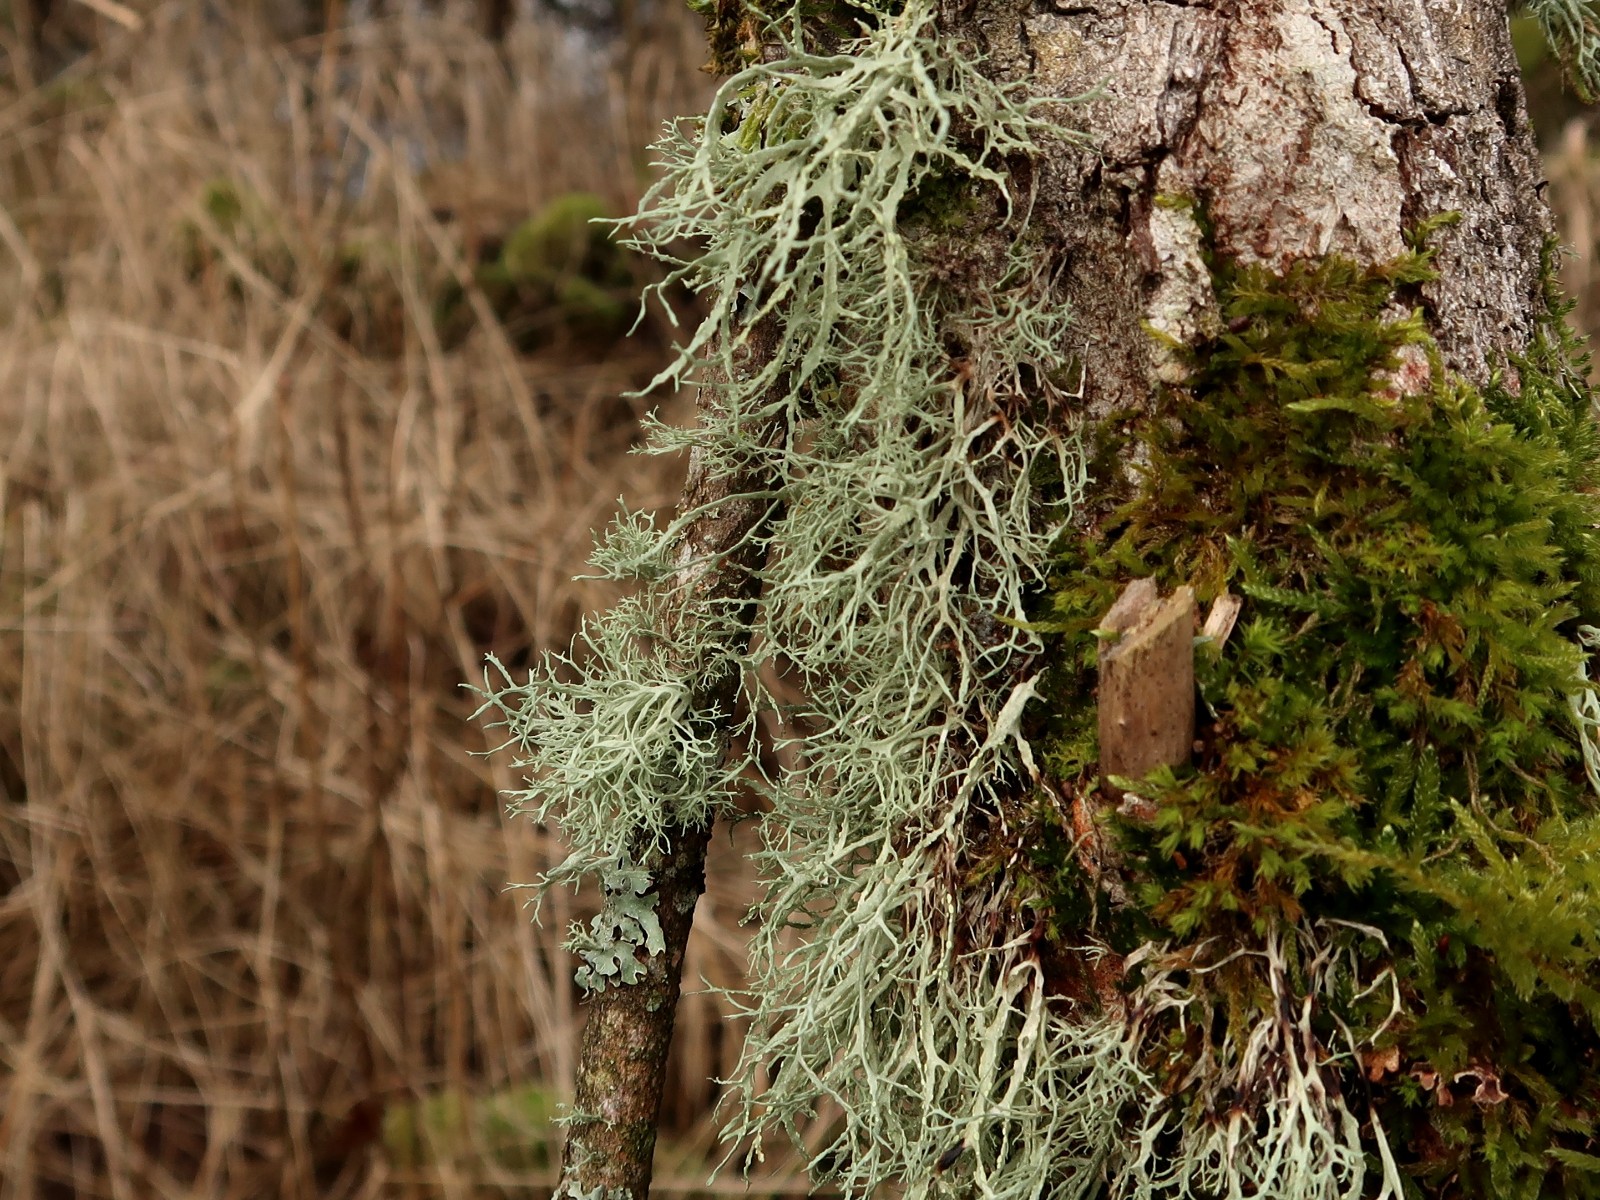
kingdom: Fungi
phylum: Ascomycota
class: Lecanoromycetes
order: Lecanorales
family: Ramalinaceae
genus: Ramalina
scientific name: Ramalina farinacea
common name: melet grenlav
